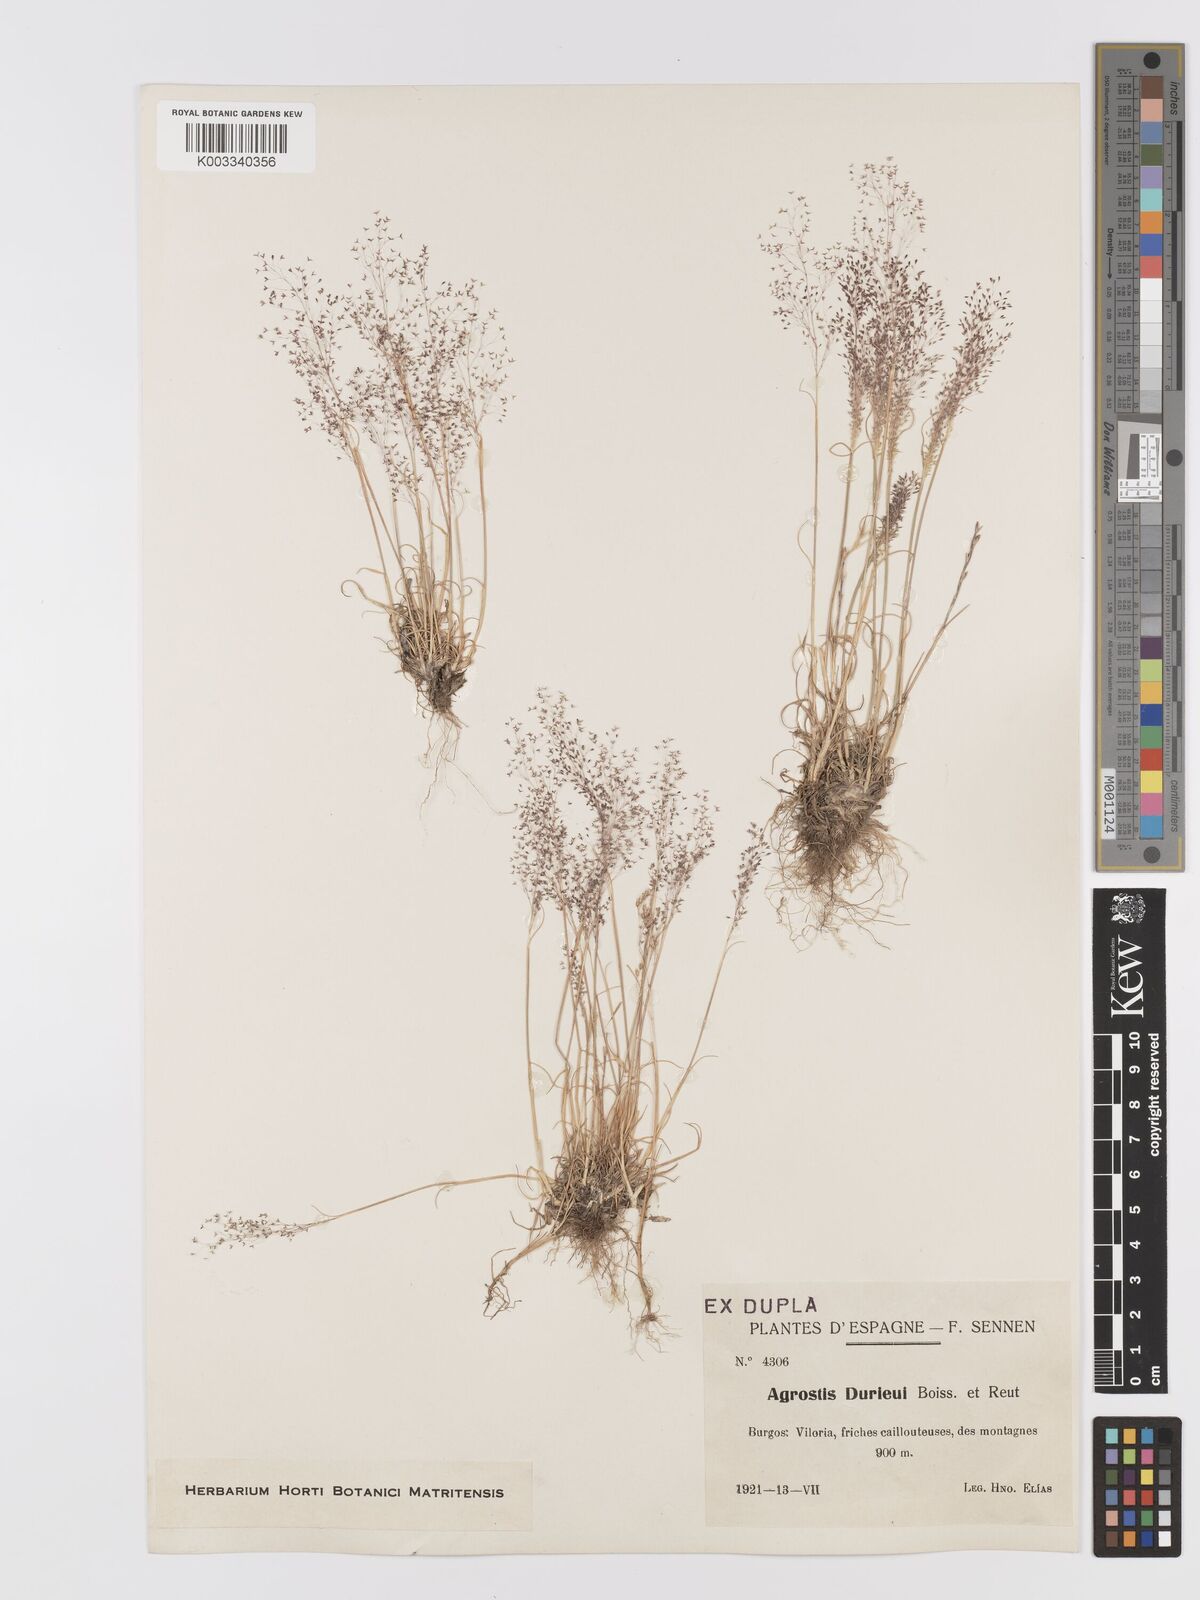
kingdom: Plantae
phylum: Tracheophyta
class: Liliopsida
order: Poales
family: Poaceae
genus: Agrostis
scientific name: Agrostis castellana
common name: Highland bent
